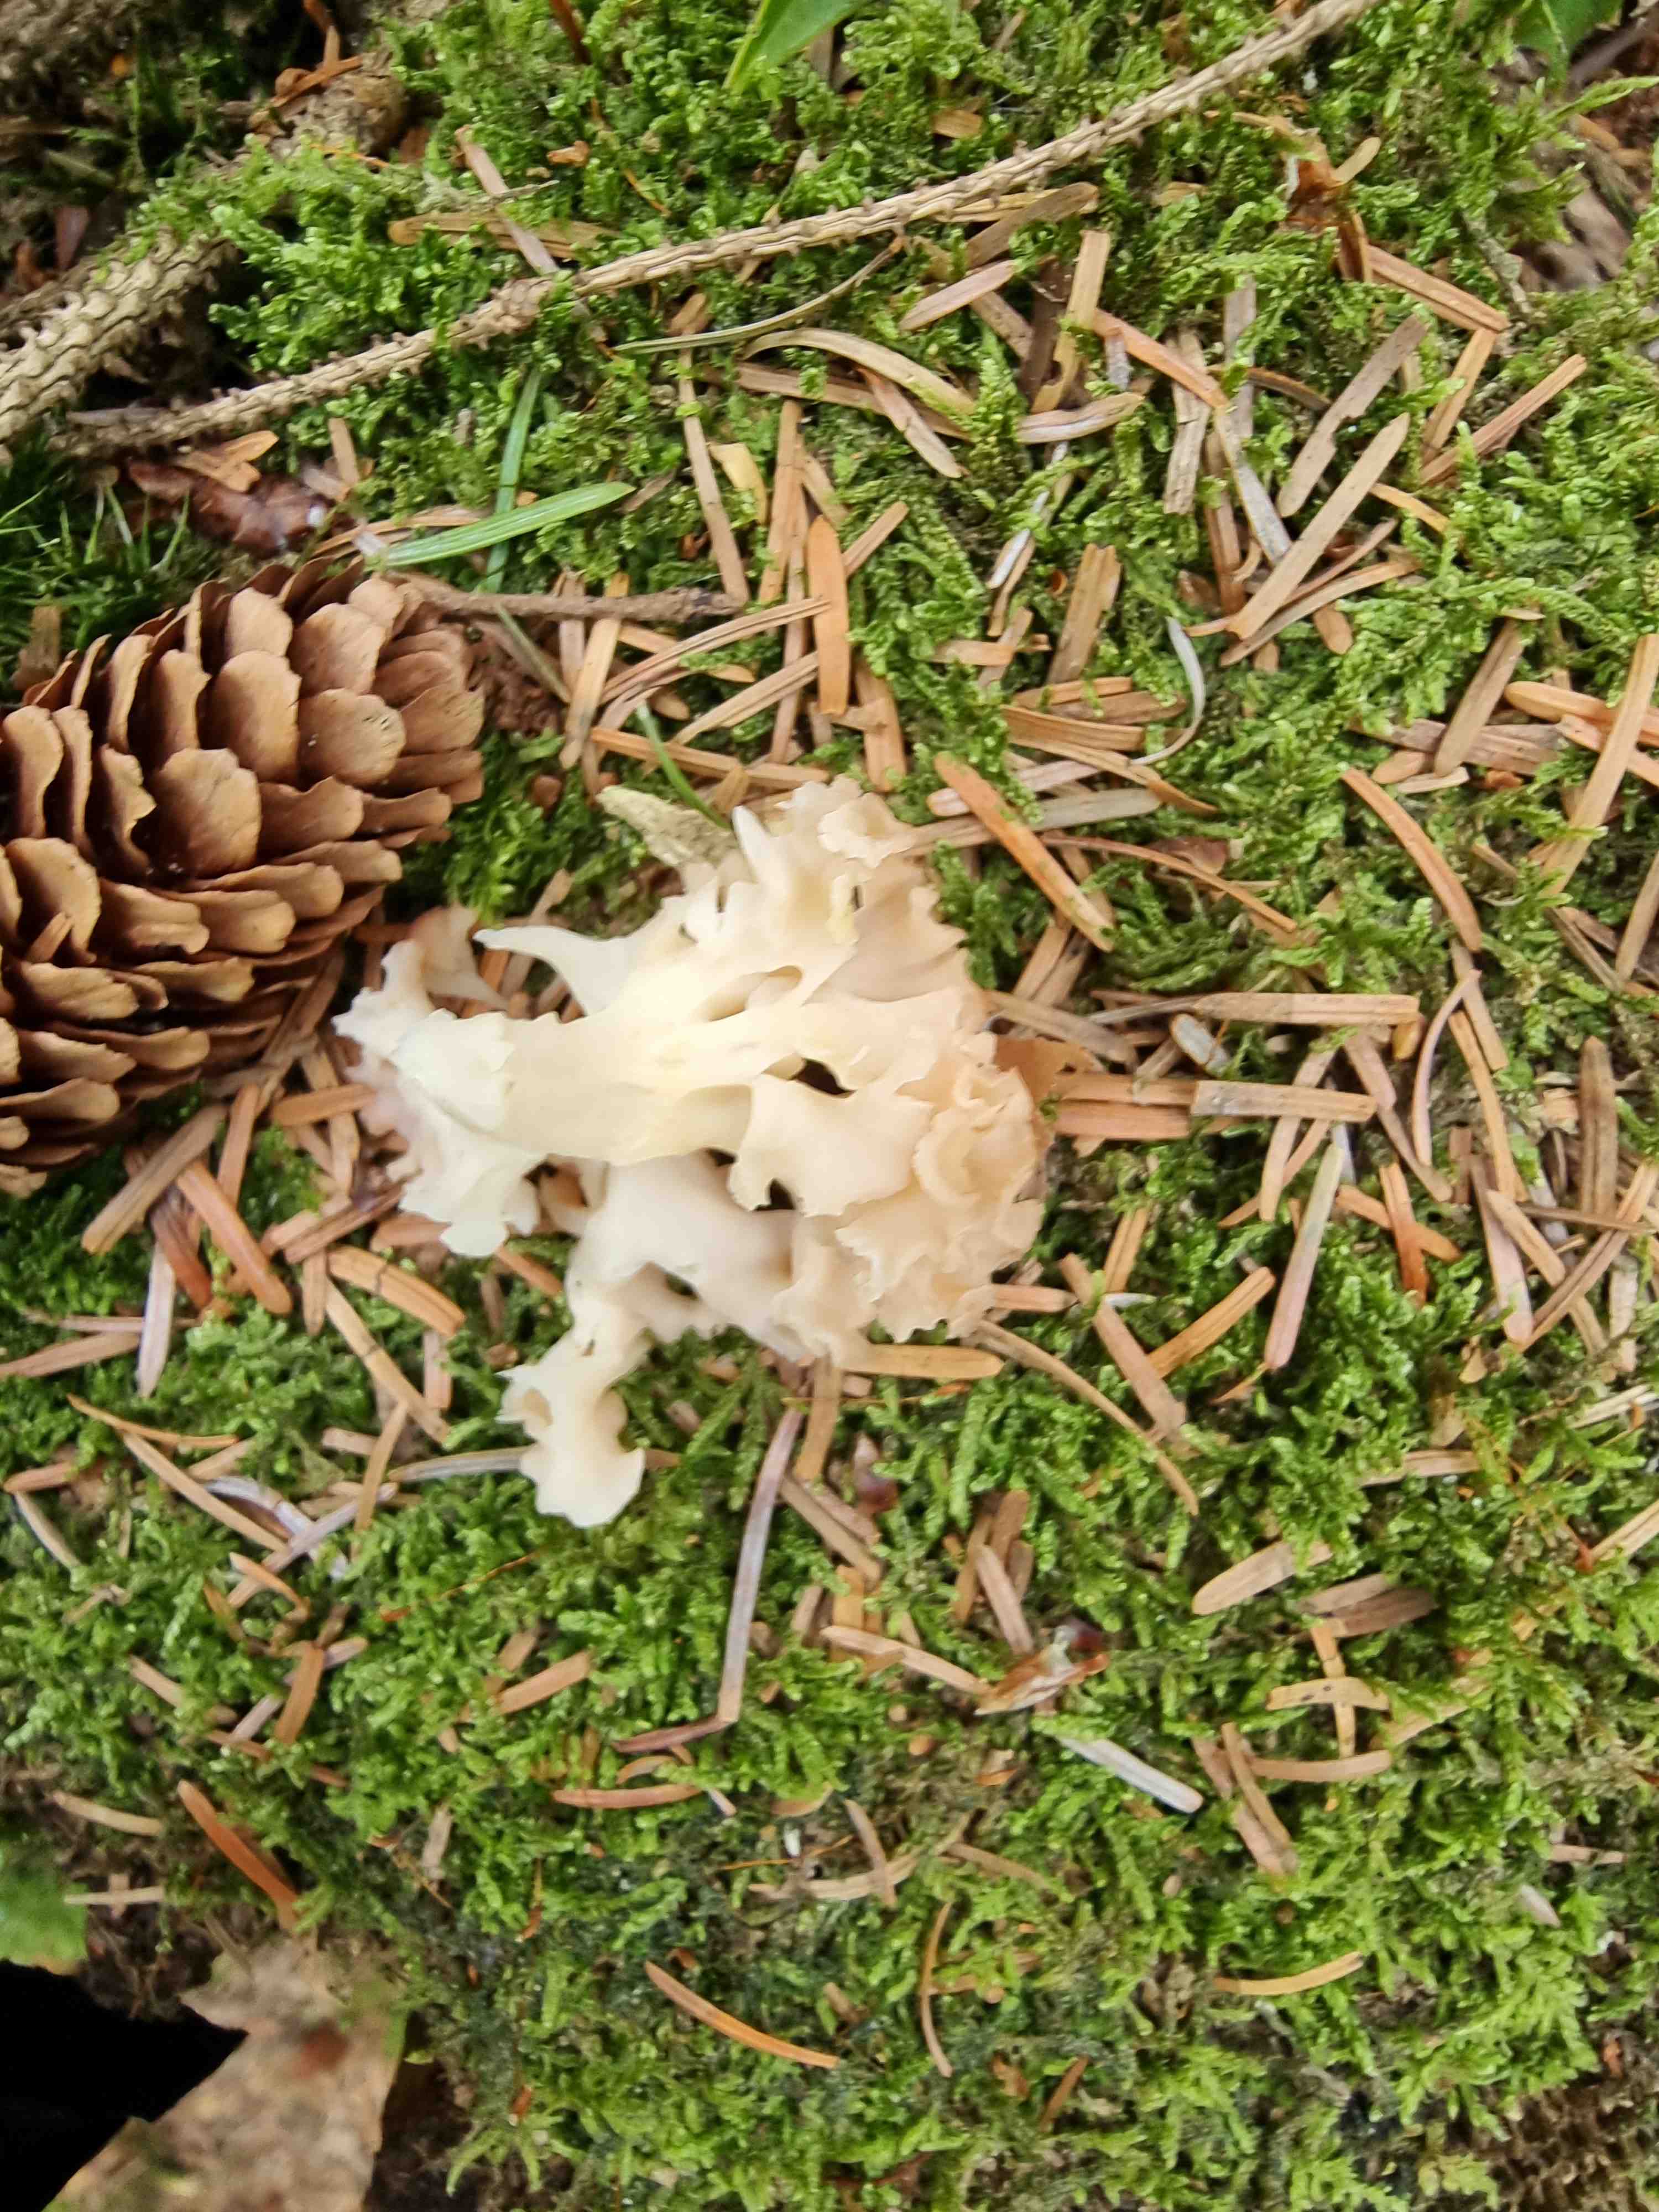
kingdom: Fungi
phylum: Basidiomycota
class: Agaricomycetes
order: Polyporales
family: Sparassidaceae
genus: Sparassis
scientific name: Sparassis crispa
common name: kruset blomkålssvamp
